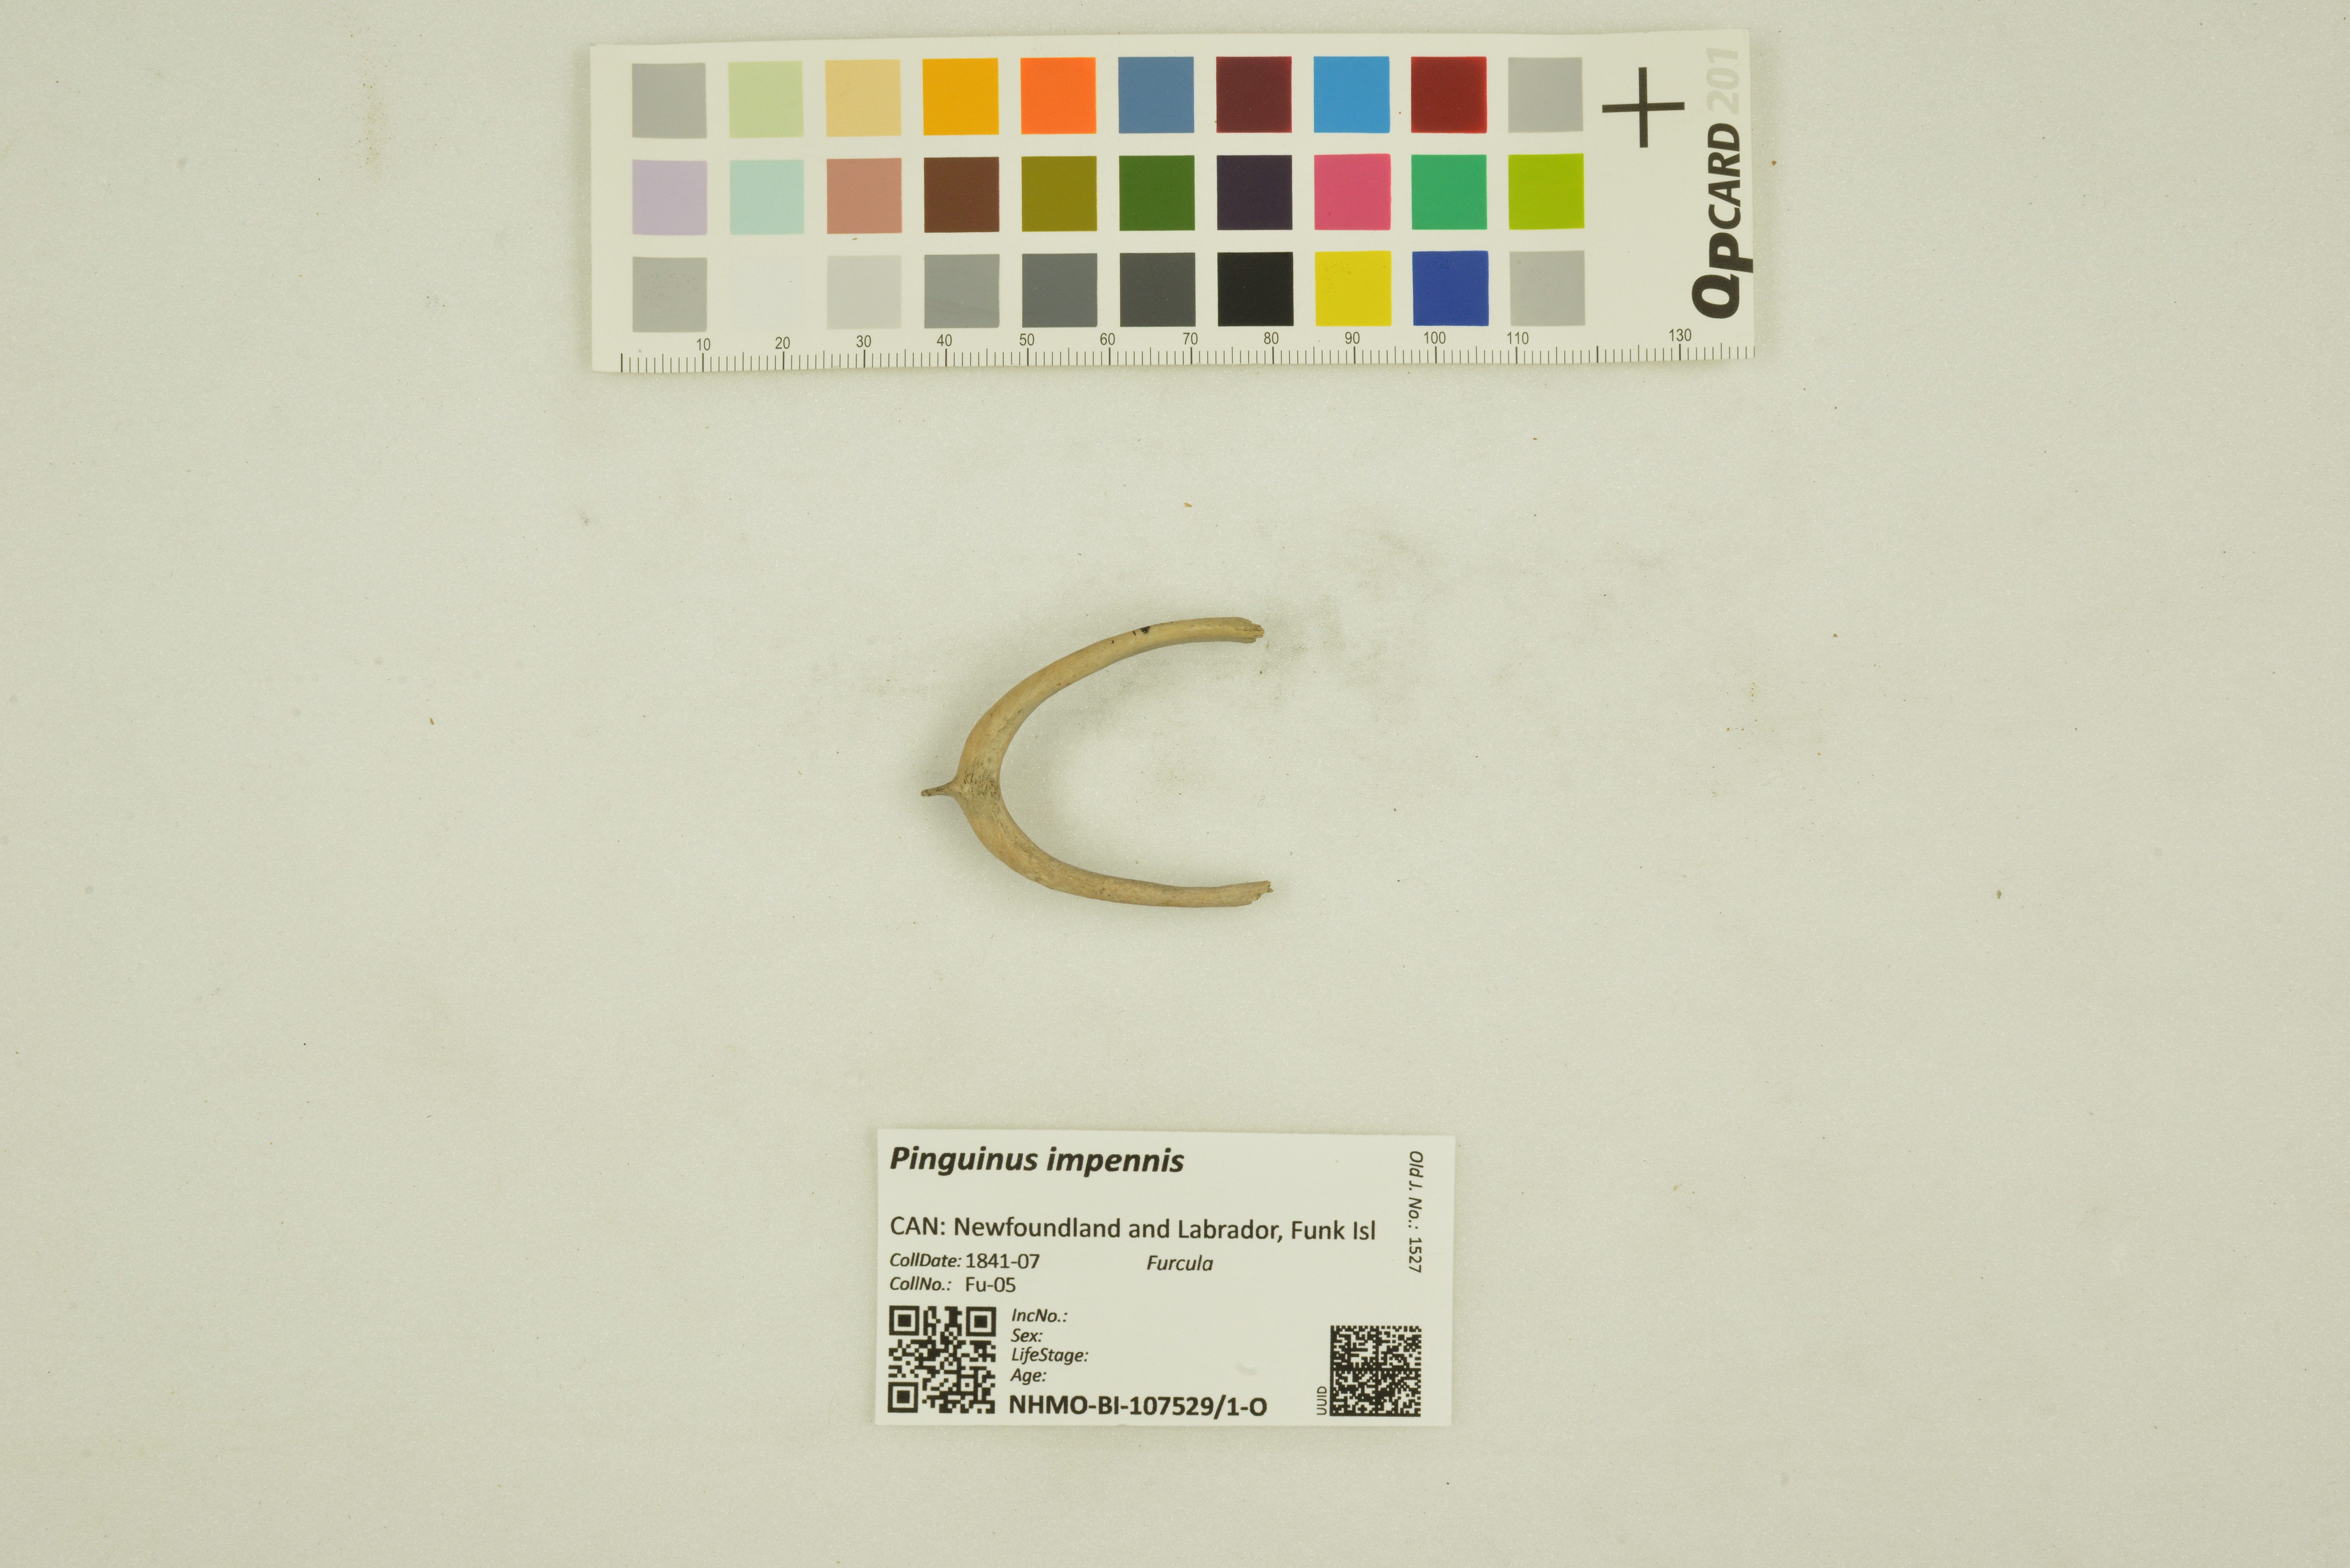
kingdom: Animalia
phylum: Chordata
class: Aves
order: Charadriiformes
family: Alcidae
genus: Pinguinus
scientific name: Pinguinus impennis
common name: Great auk
